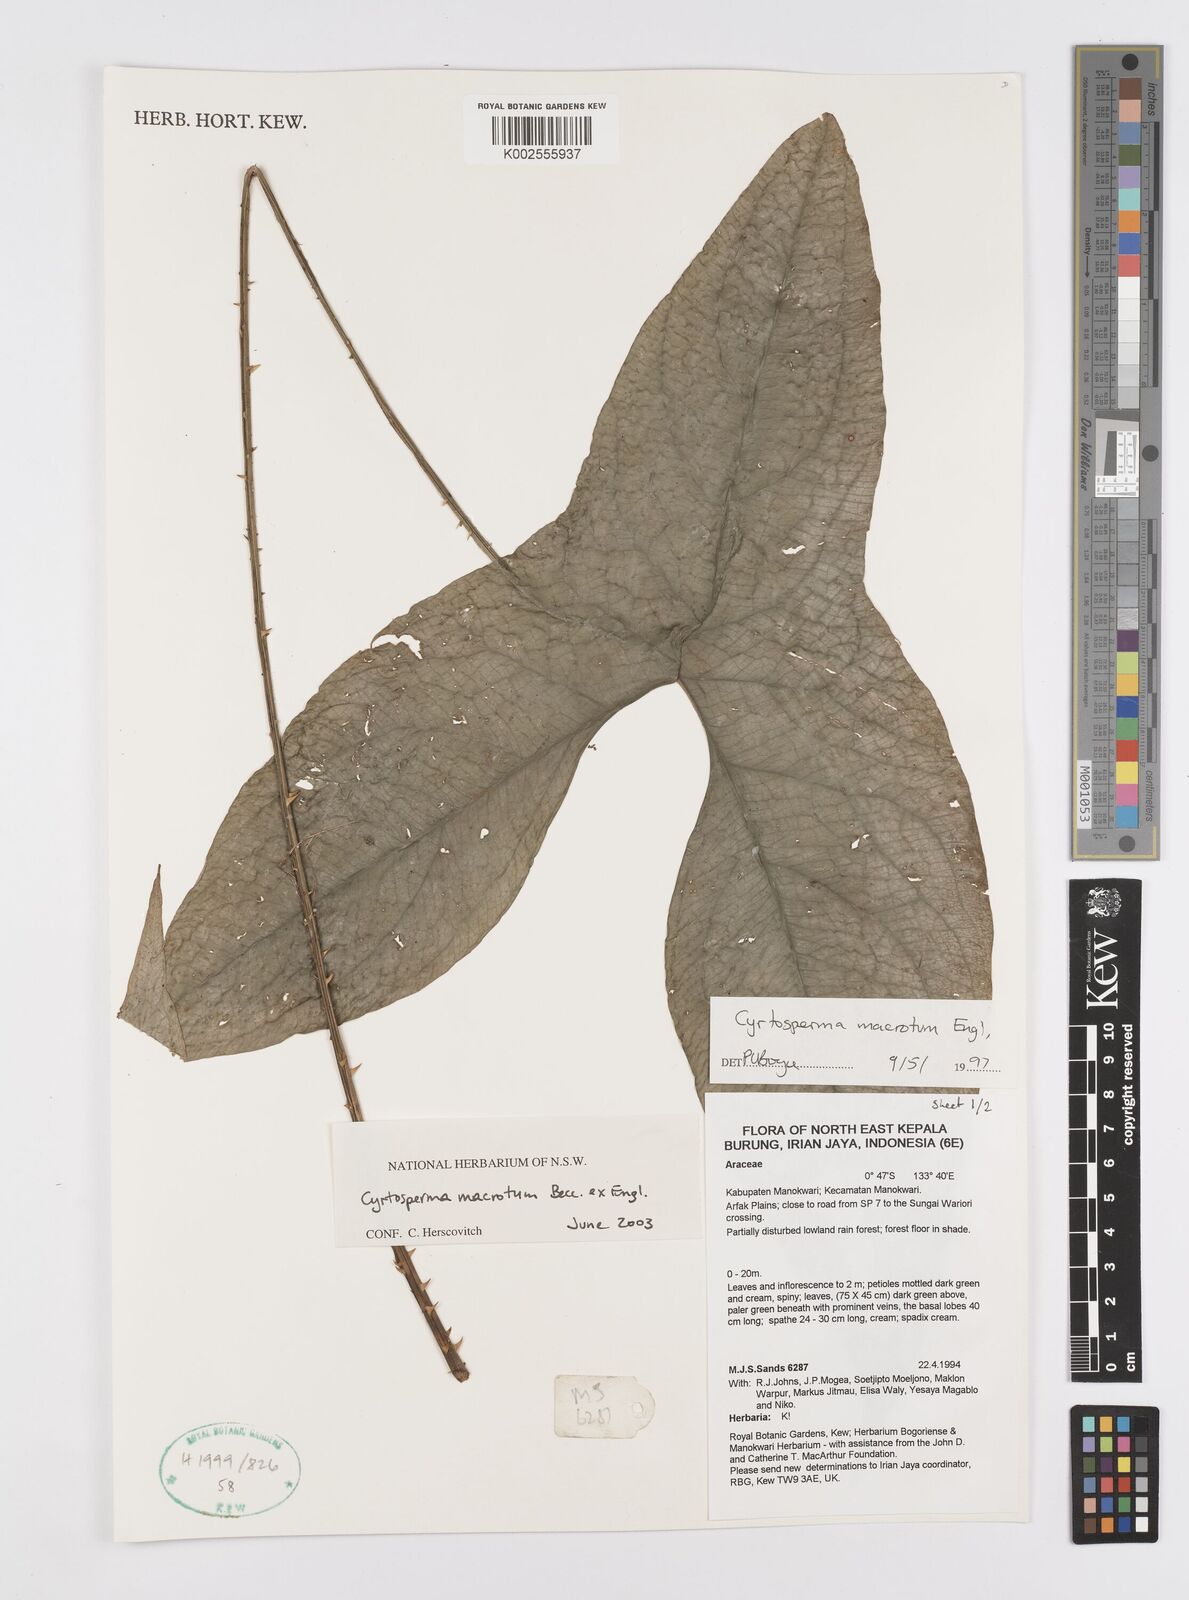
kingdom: Plantae
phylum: Tracheophyta
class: Liliopsida
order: Alismatales
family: Araceae
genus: Cyrtosperma
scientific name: Cyrtosperma macrotum
